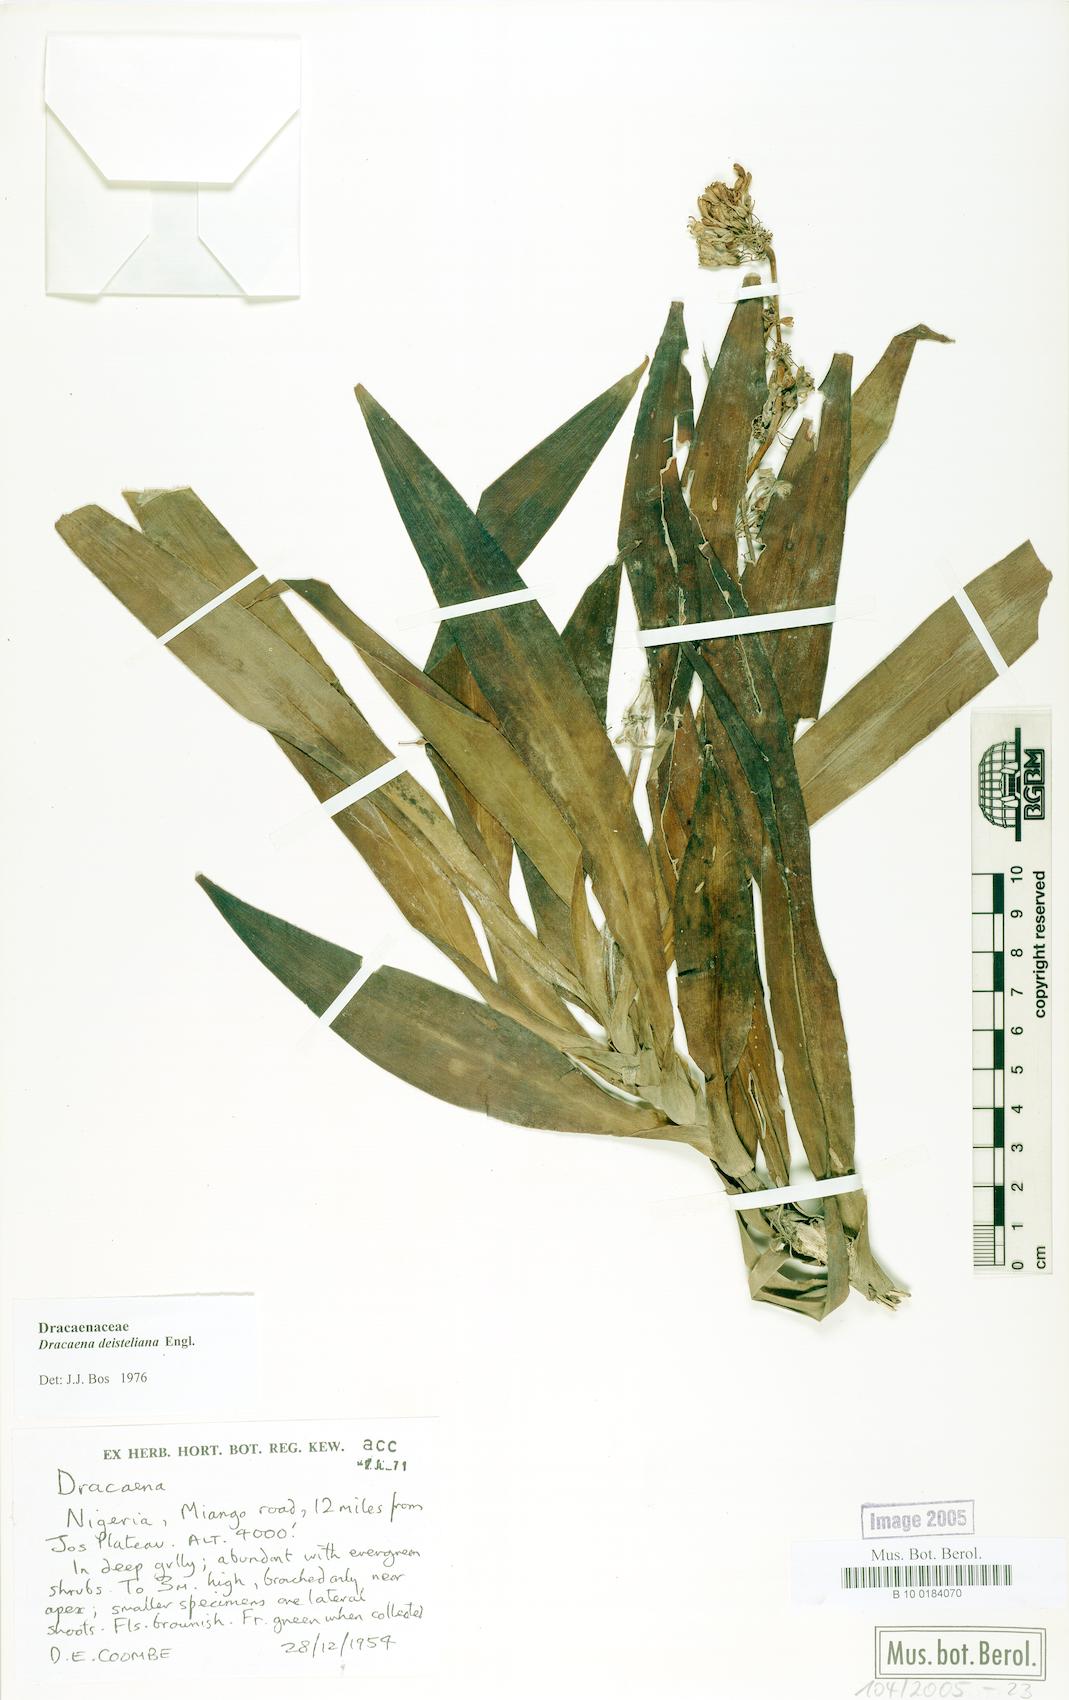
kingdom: Plantae
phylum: Tracheophyta
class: Liliopsida
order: Asparagales
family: Asparagaceae
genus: Dracaena
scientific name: Dracaena fragrans
